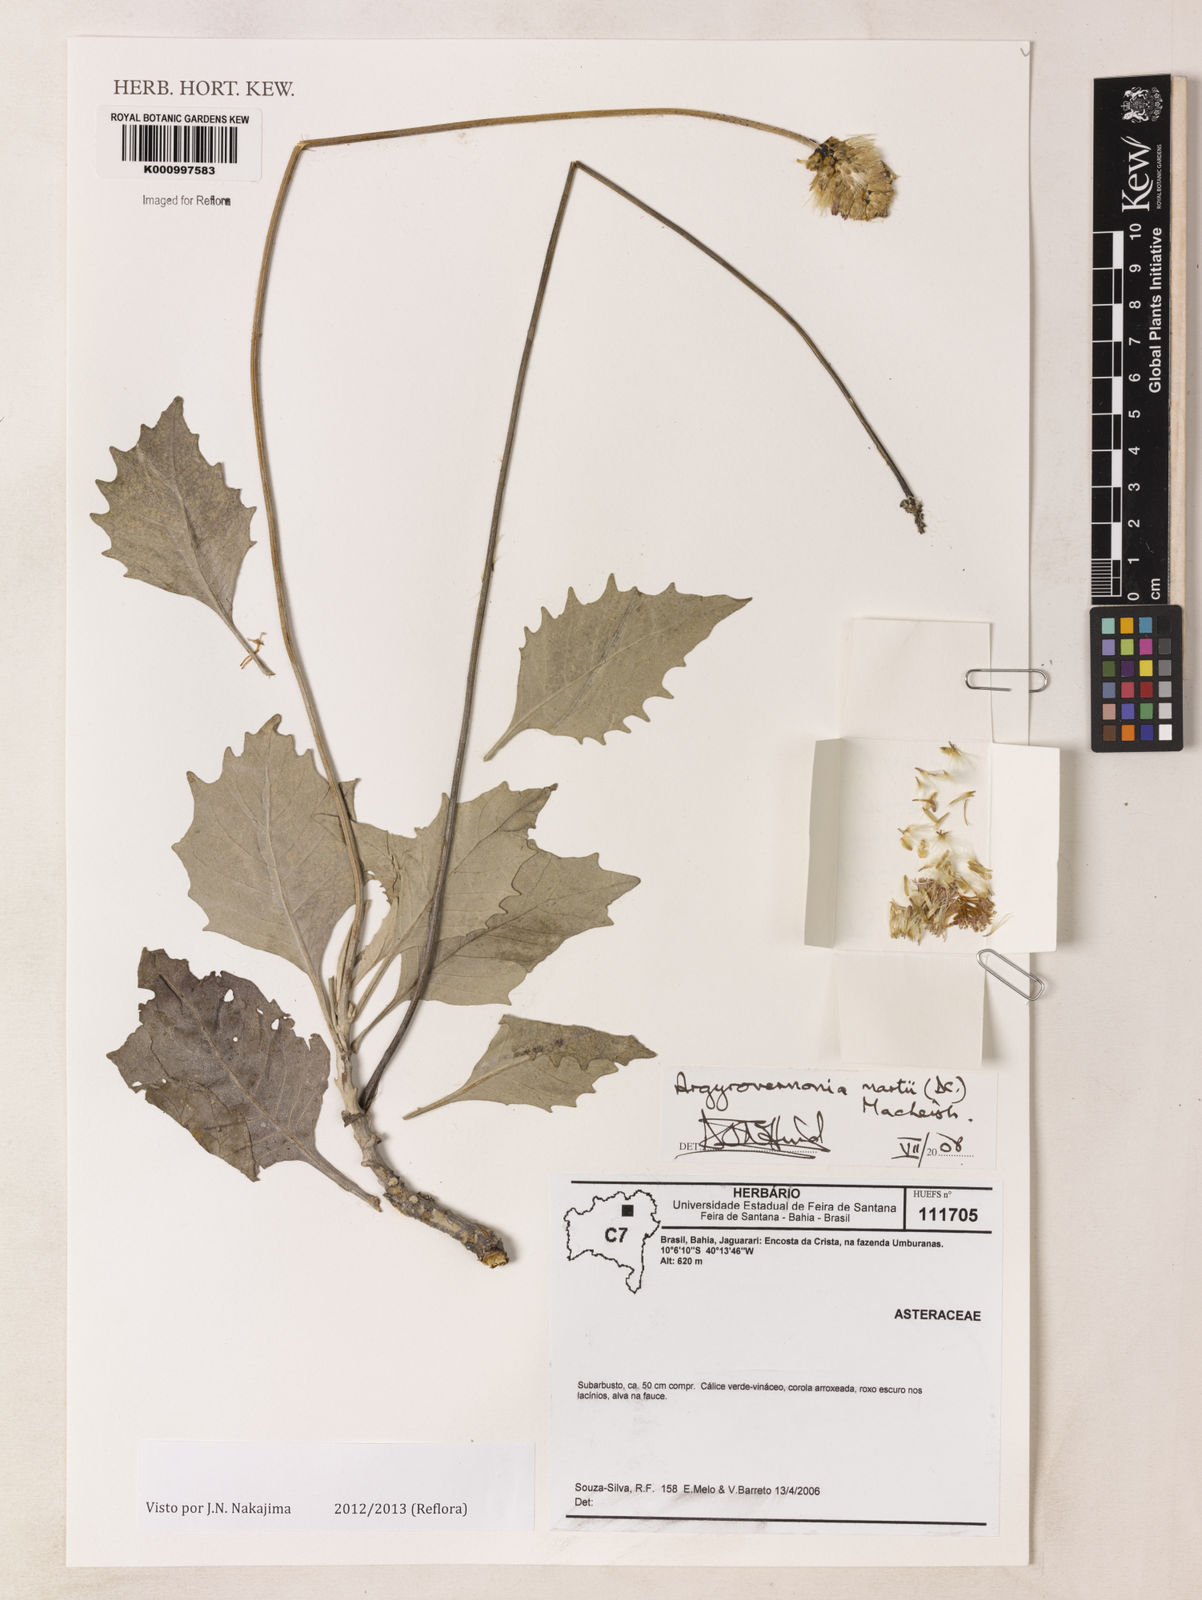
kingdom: Plantae
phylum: Tracheophyta
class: Magnoliopsida
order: Asterales
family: Asteraceae
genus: Chresta
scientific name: Chresta martii
